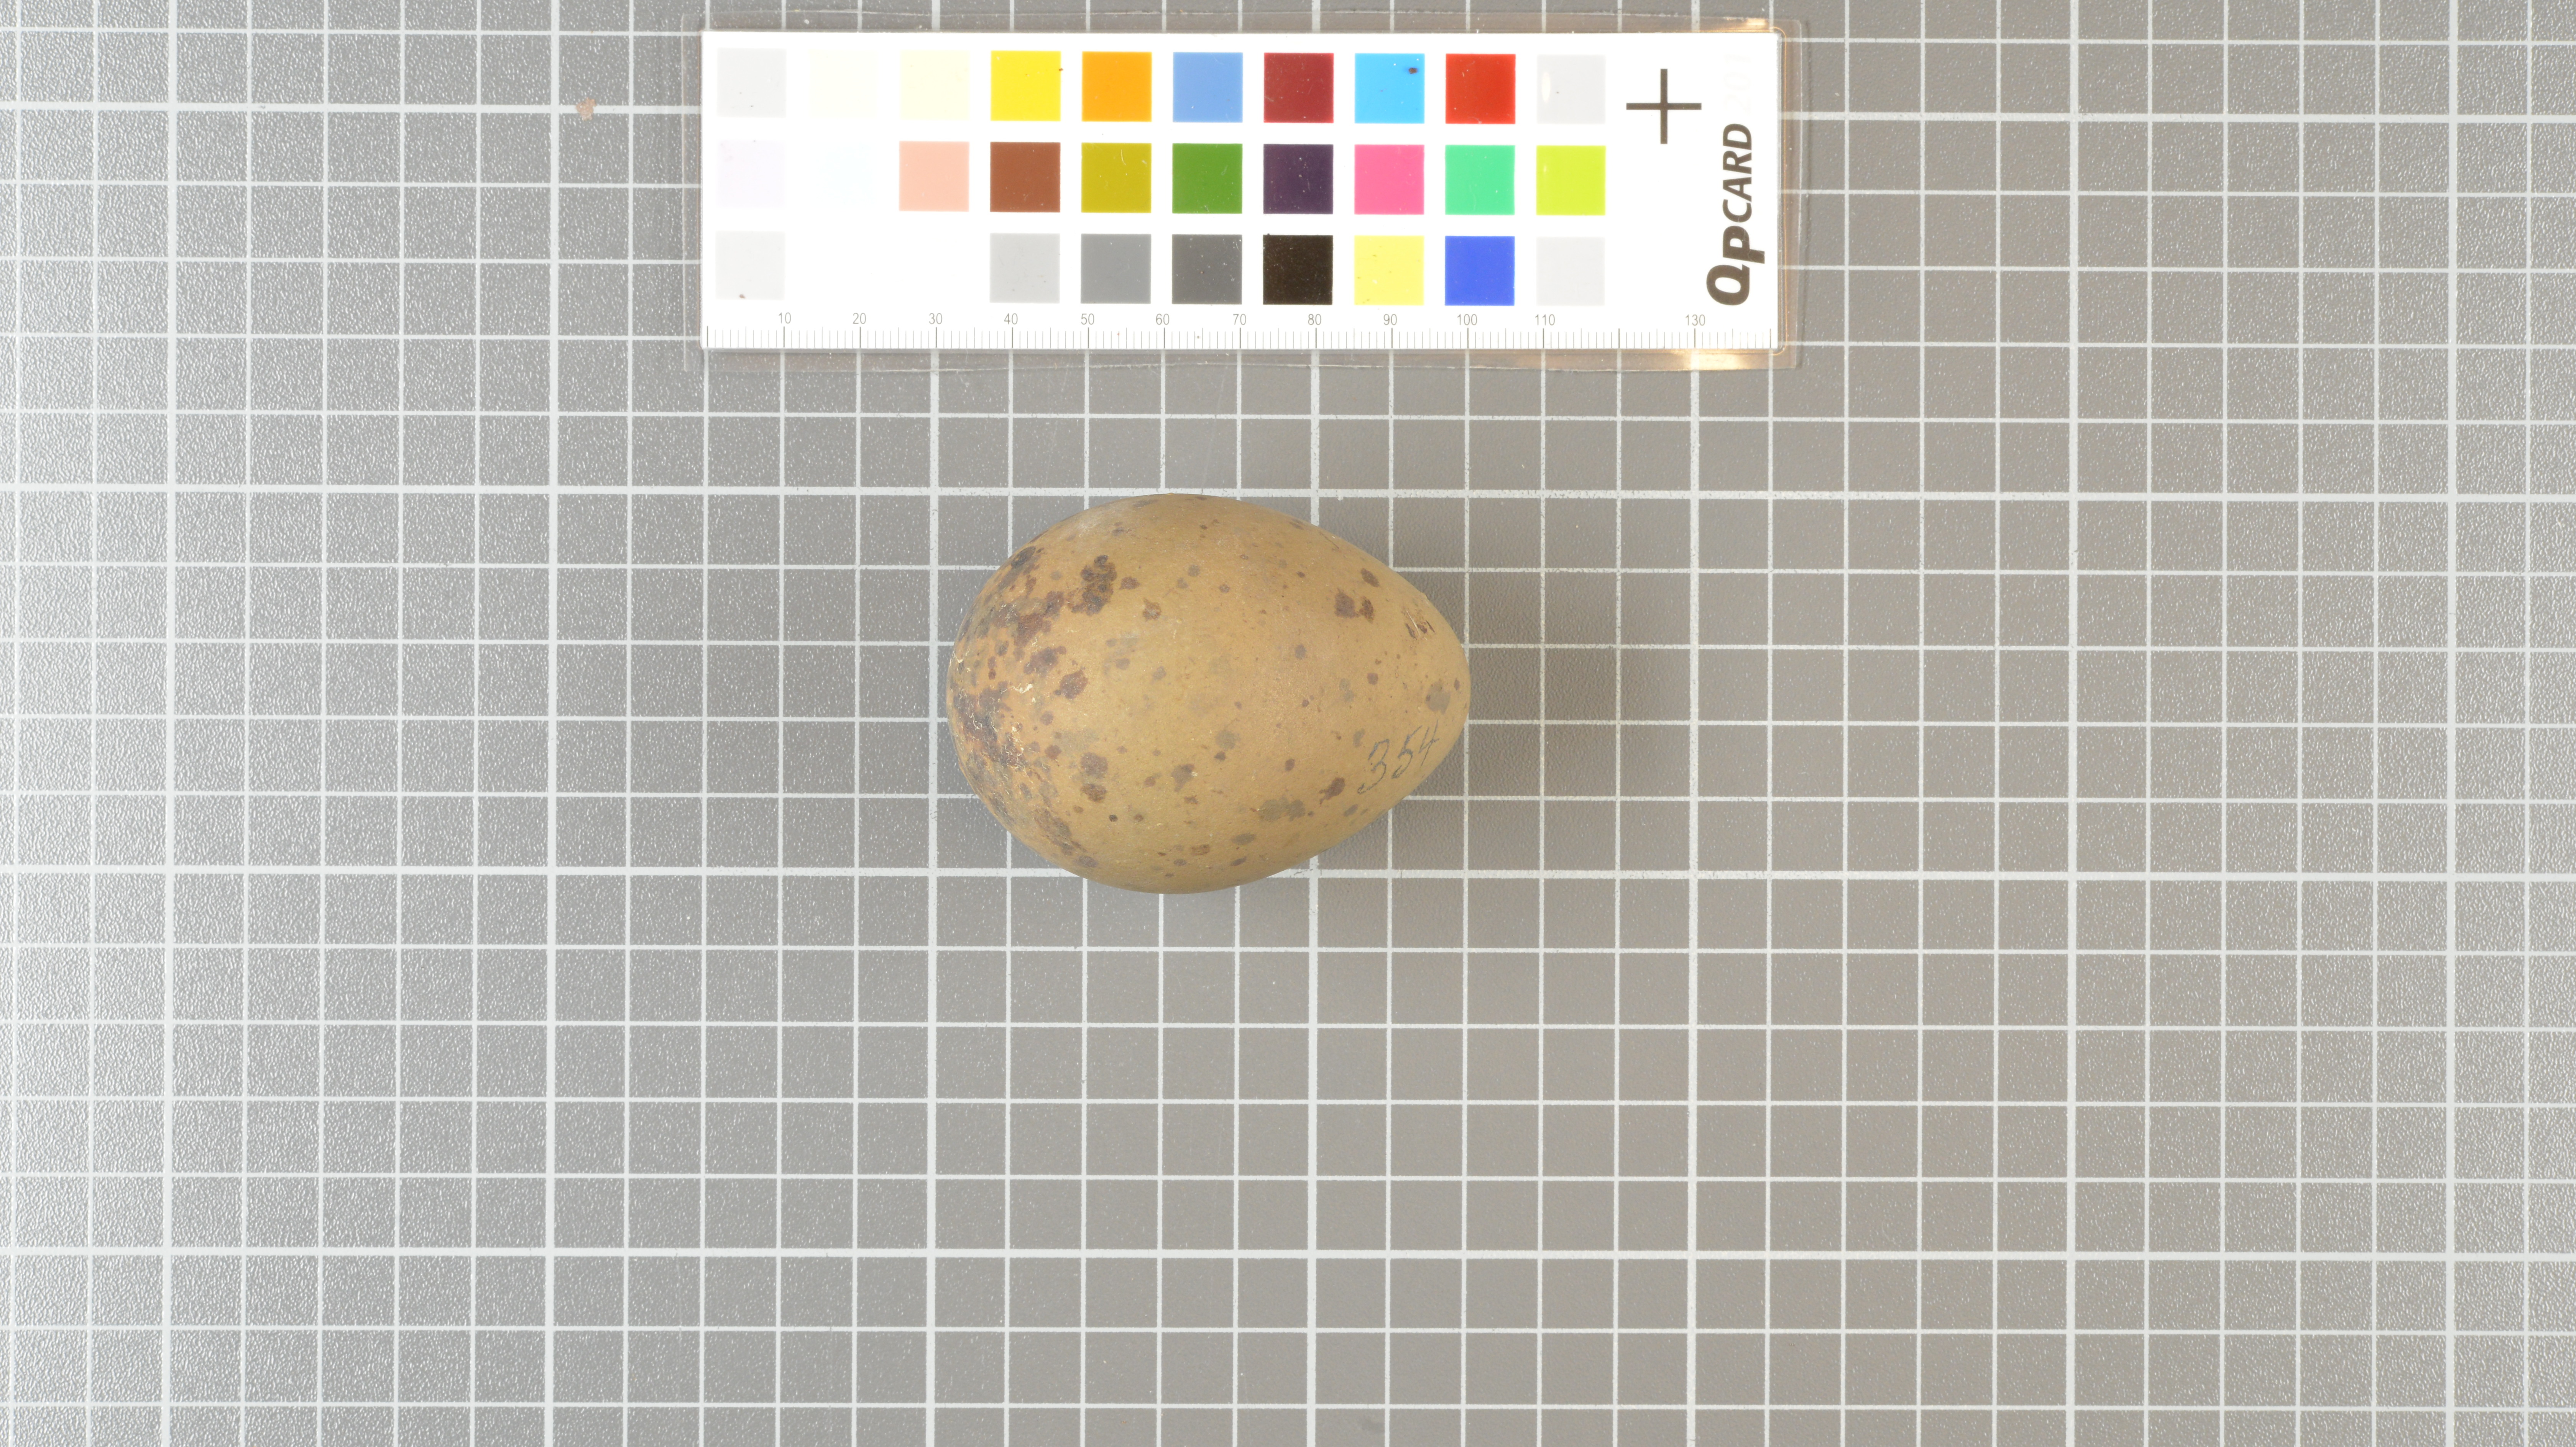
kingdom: Animalia
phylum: Chordata
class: Aves
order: Charadriiformes
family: Stercorariidae
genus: Stercorarius
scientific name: Stercorarius antarcticus
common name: Brown skua
